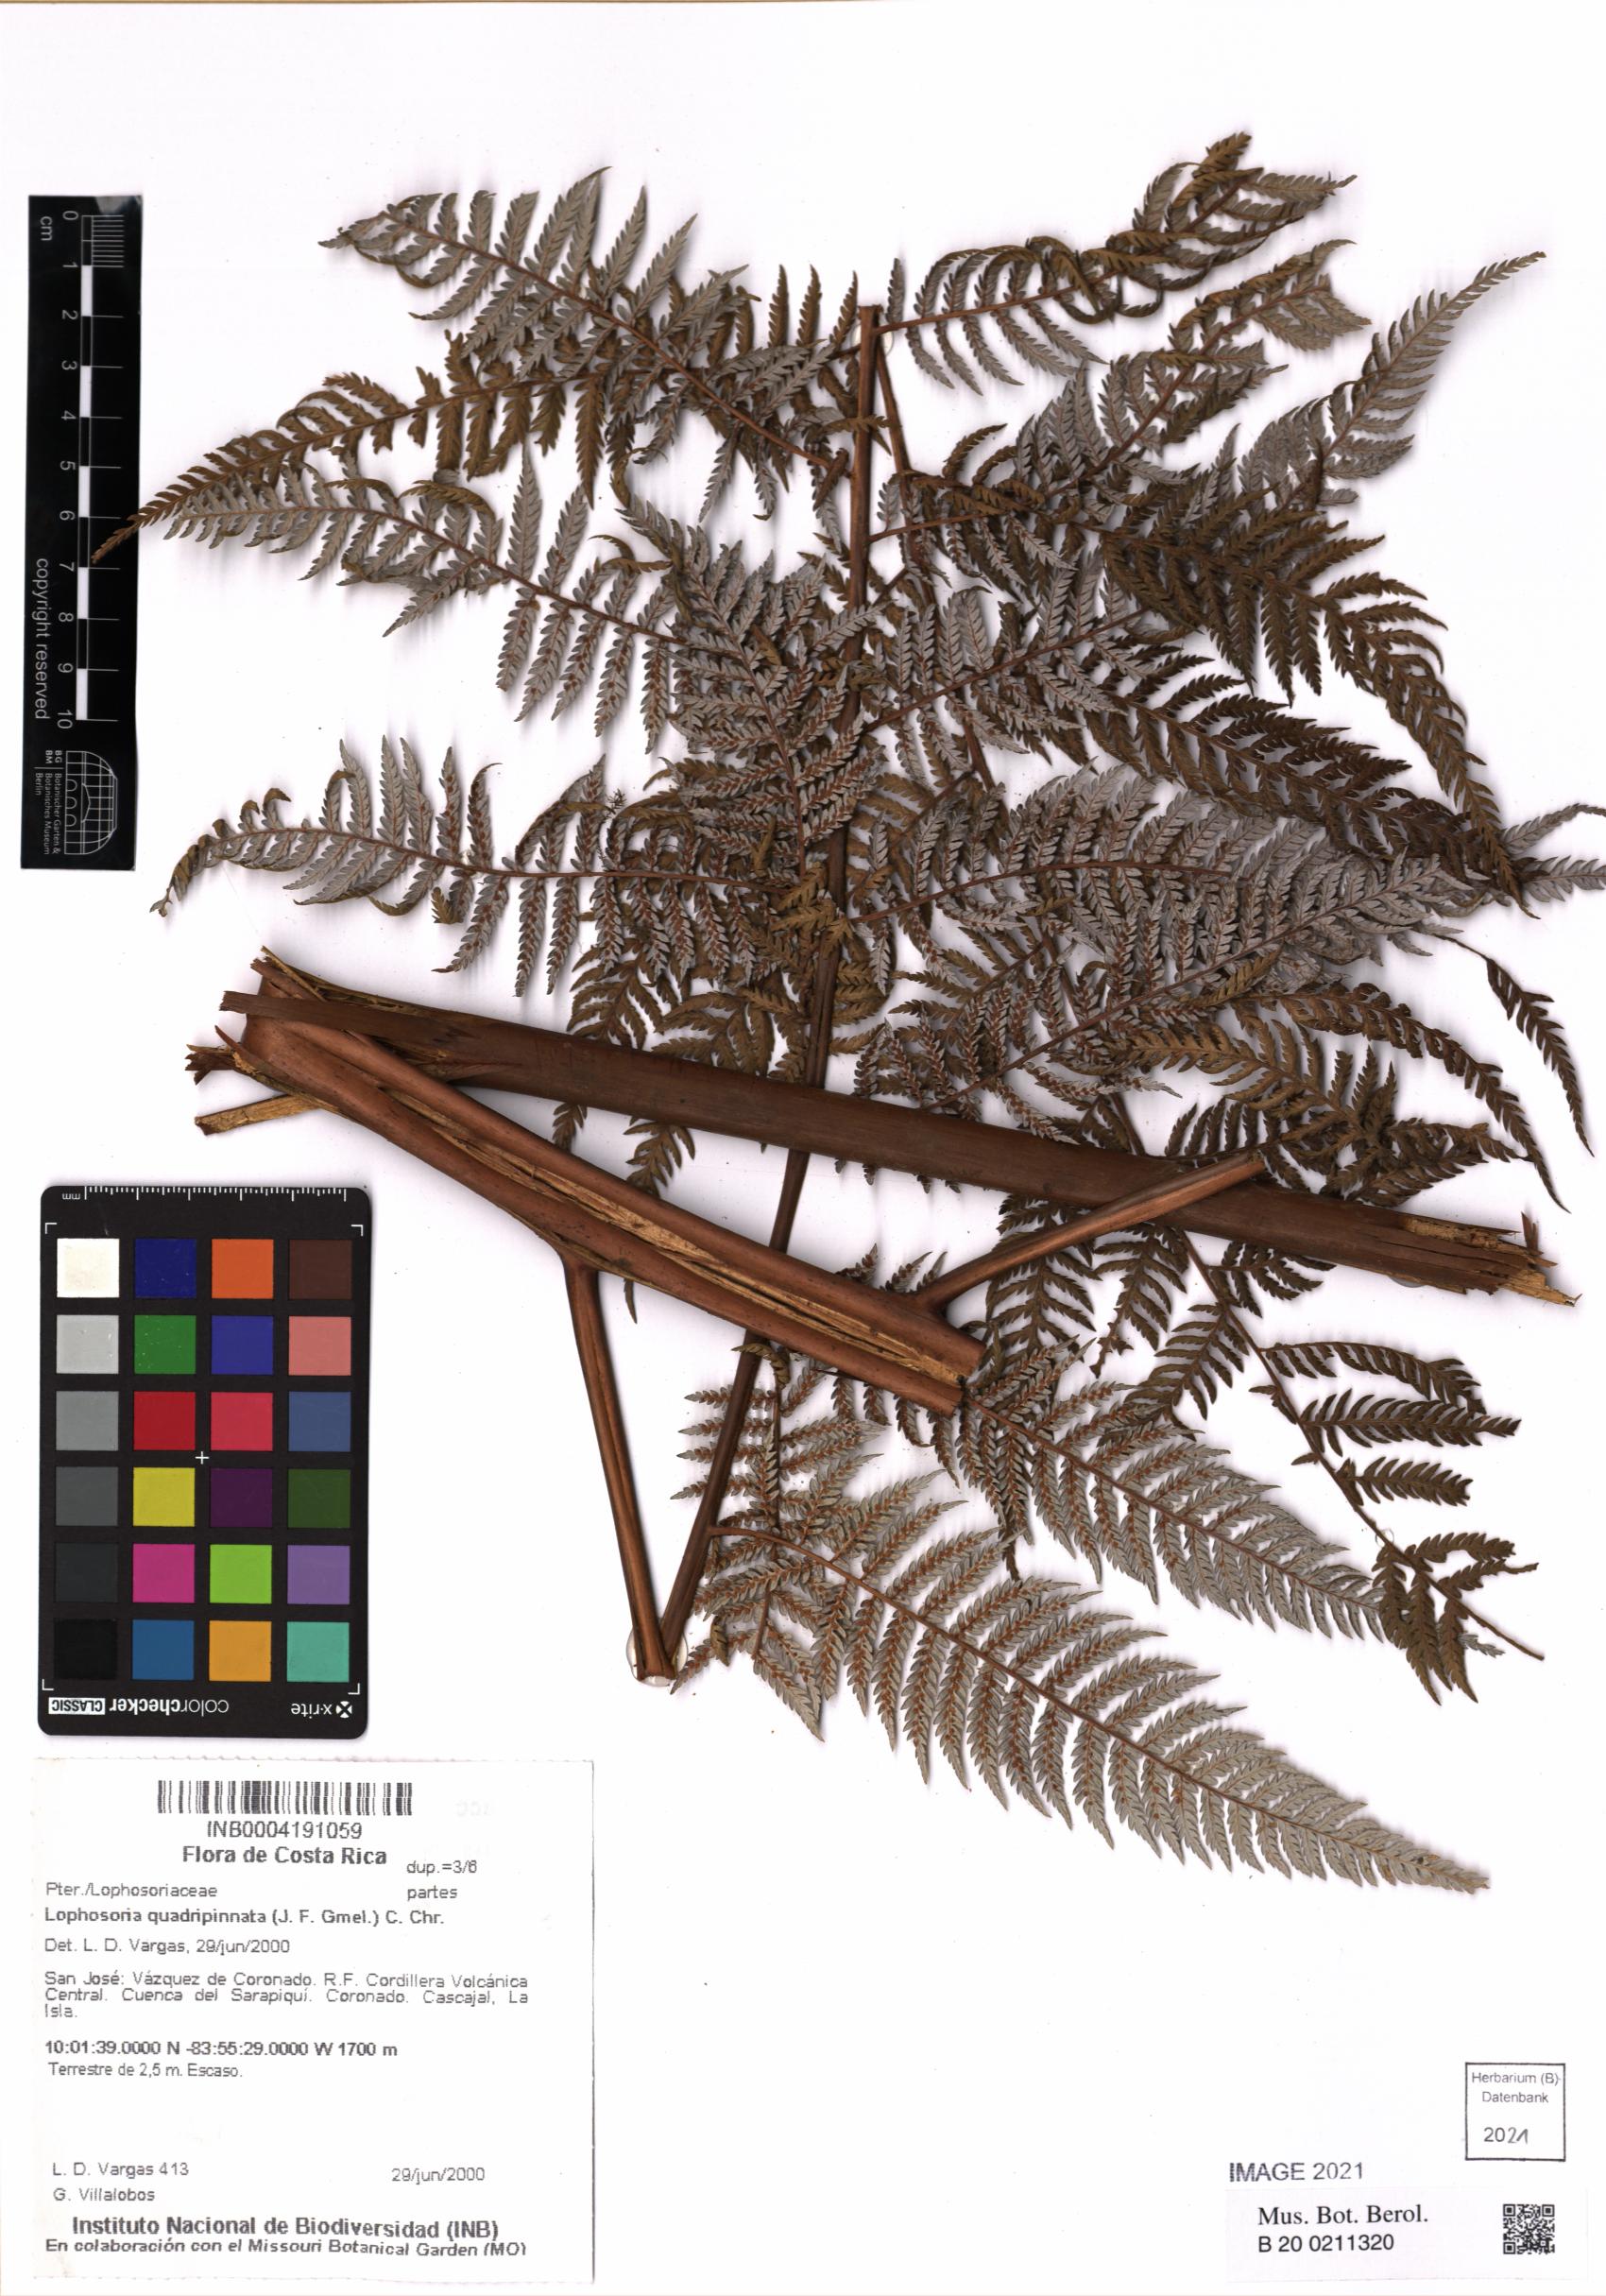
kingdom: Plantae
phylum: Tracheophyta
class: Polypodiopsida
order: Cyatheales
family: Dicksoniaceae
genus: Lophosoria
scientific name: Lophosoria quadripinnata
